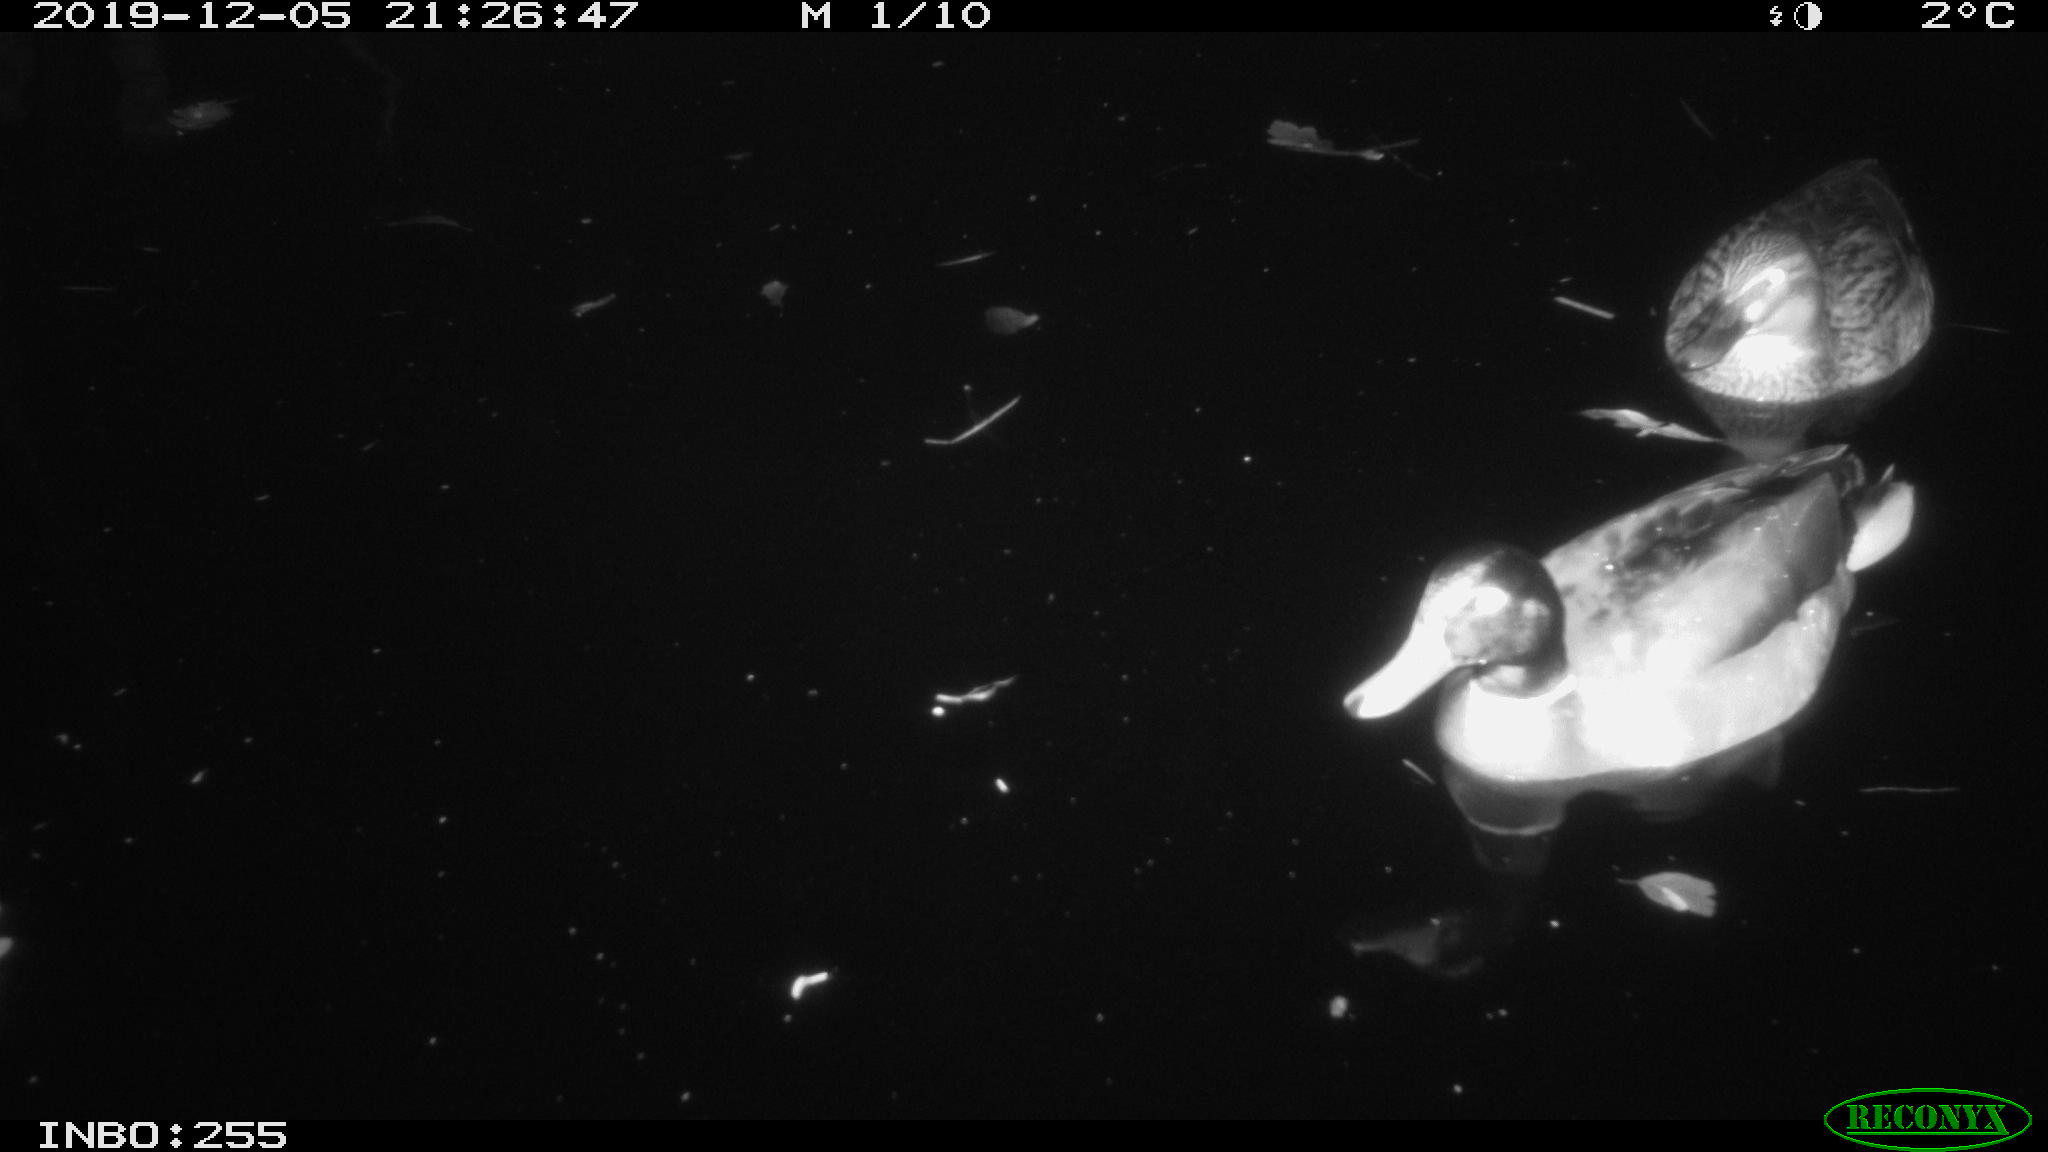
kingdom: Animalia
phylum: Chordata
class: Aves
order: Anseriformes
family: Anatidae
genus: Anas
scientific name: Anas platyrhynchos
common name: Mallard
